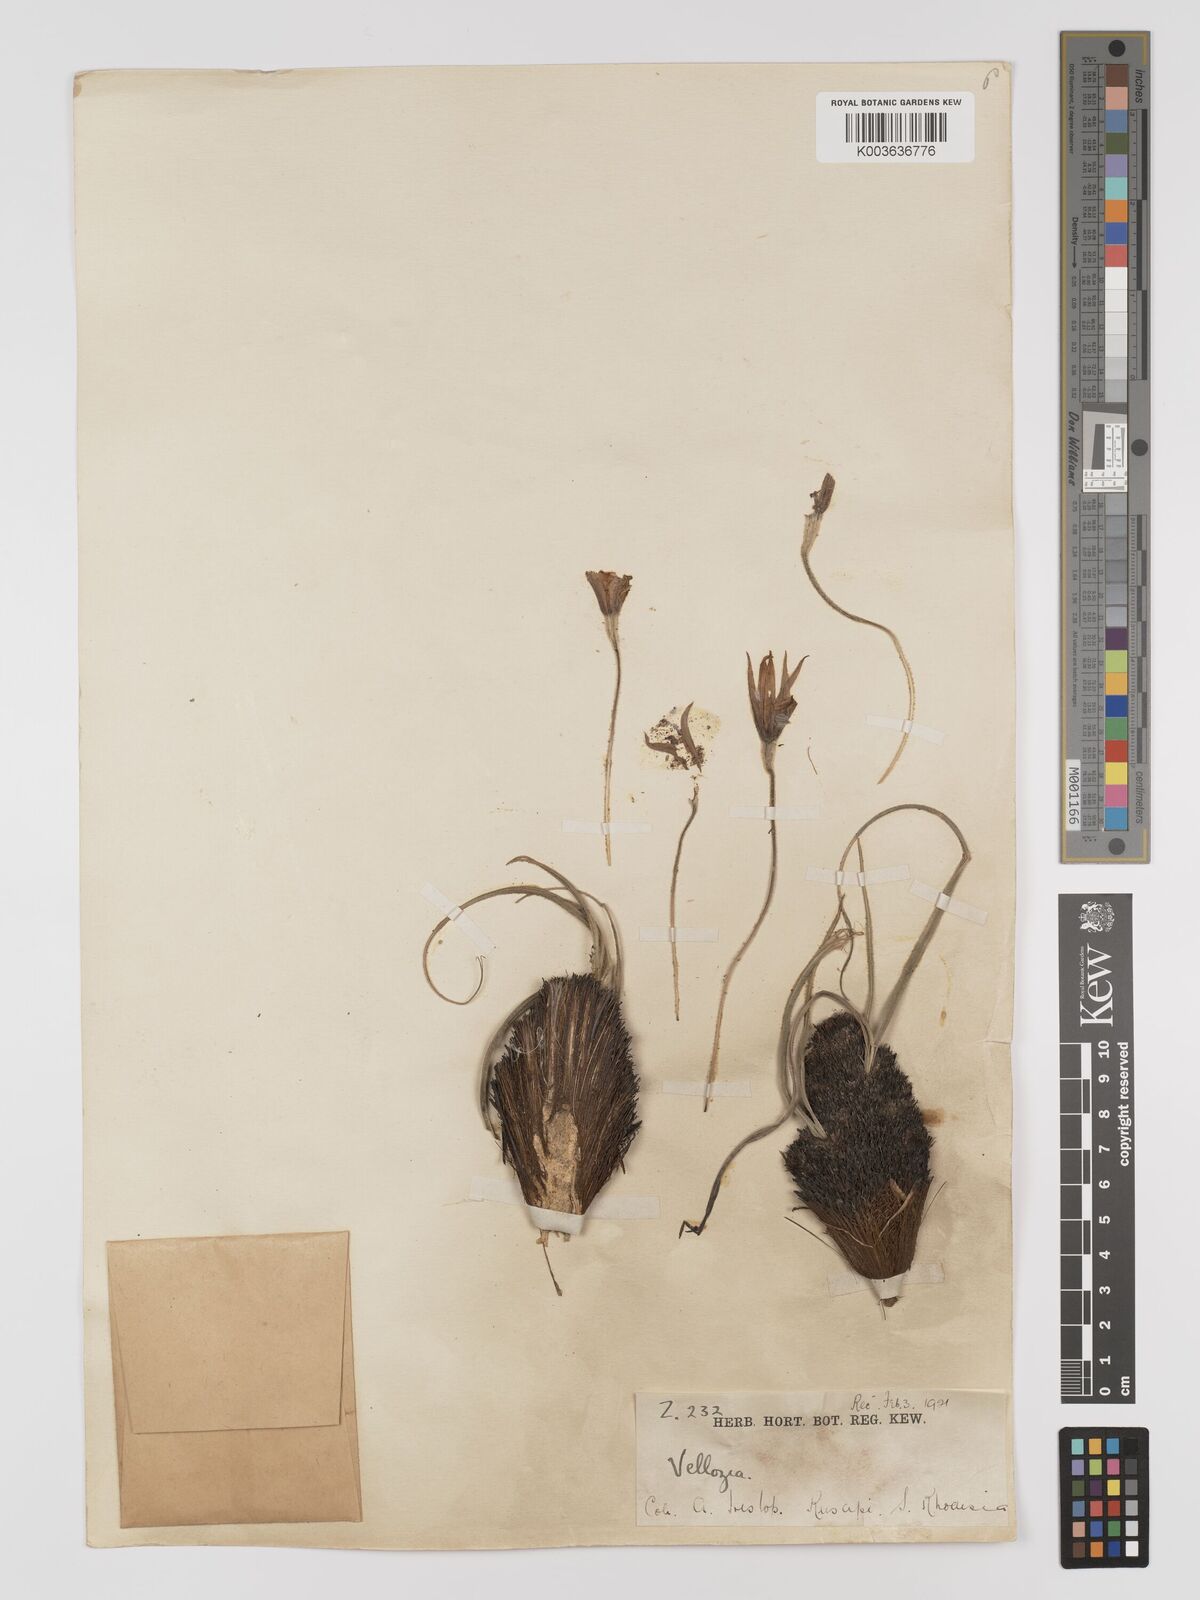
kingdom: Plantae
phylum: Tracheophyta
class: Liliopsida
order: Pandanales
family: Velloziaceae
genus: Xerophyta
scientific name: Xerophyta villosa
